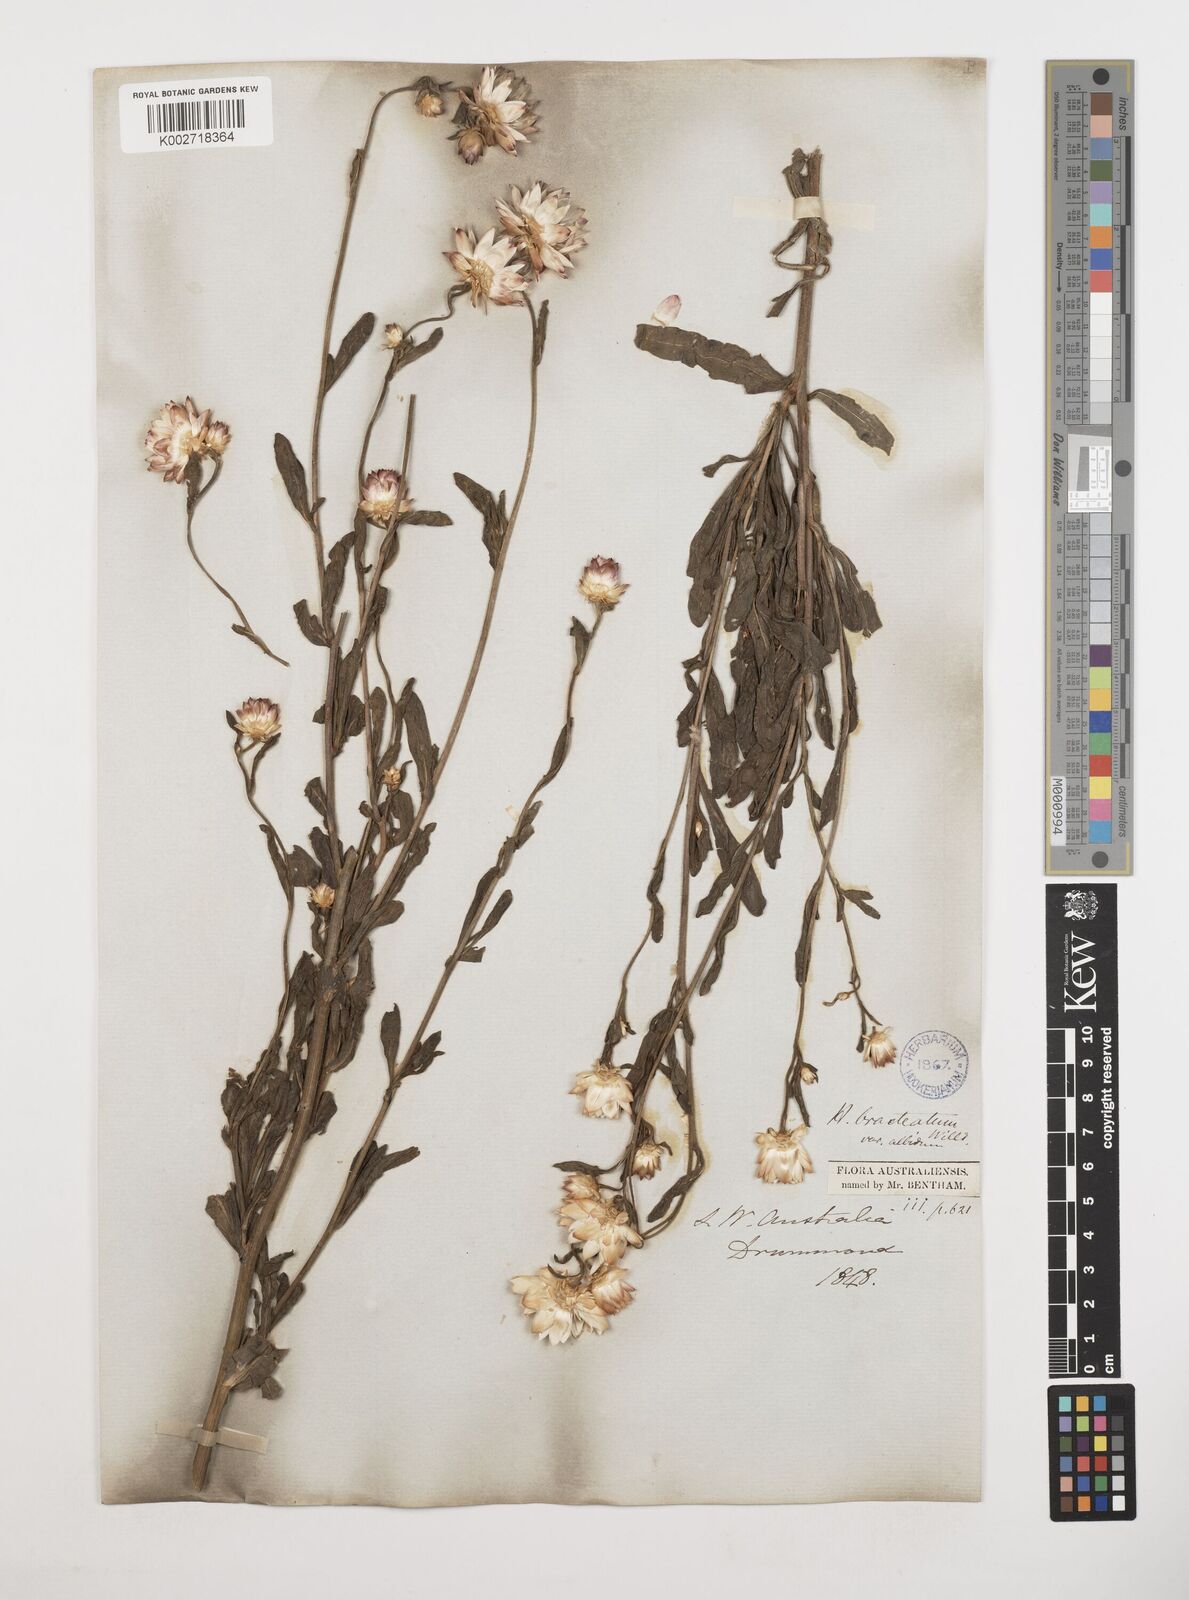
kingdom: Plantae
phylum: Tracheophyta
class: Magnoliopsida
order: Asterales
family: Asteraceae
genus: Xerochrysum
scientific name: Xerochrysum bracteatum
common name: Bracted strawflower
